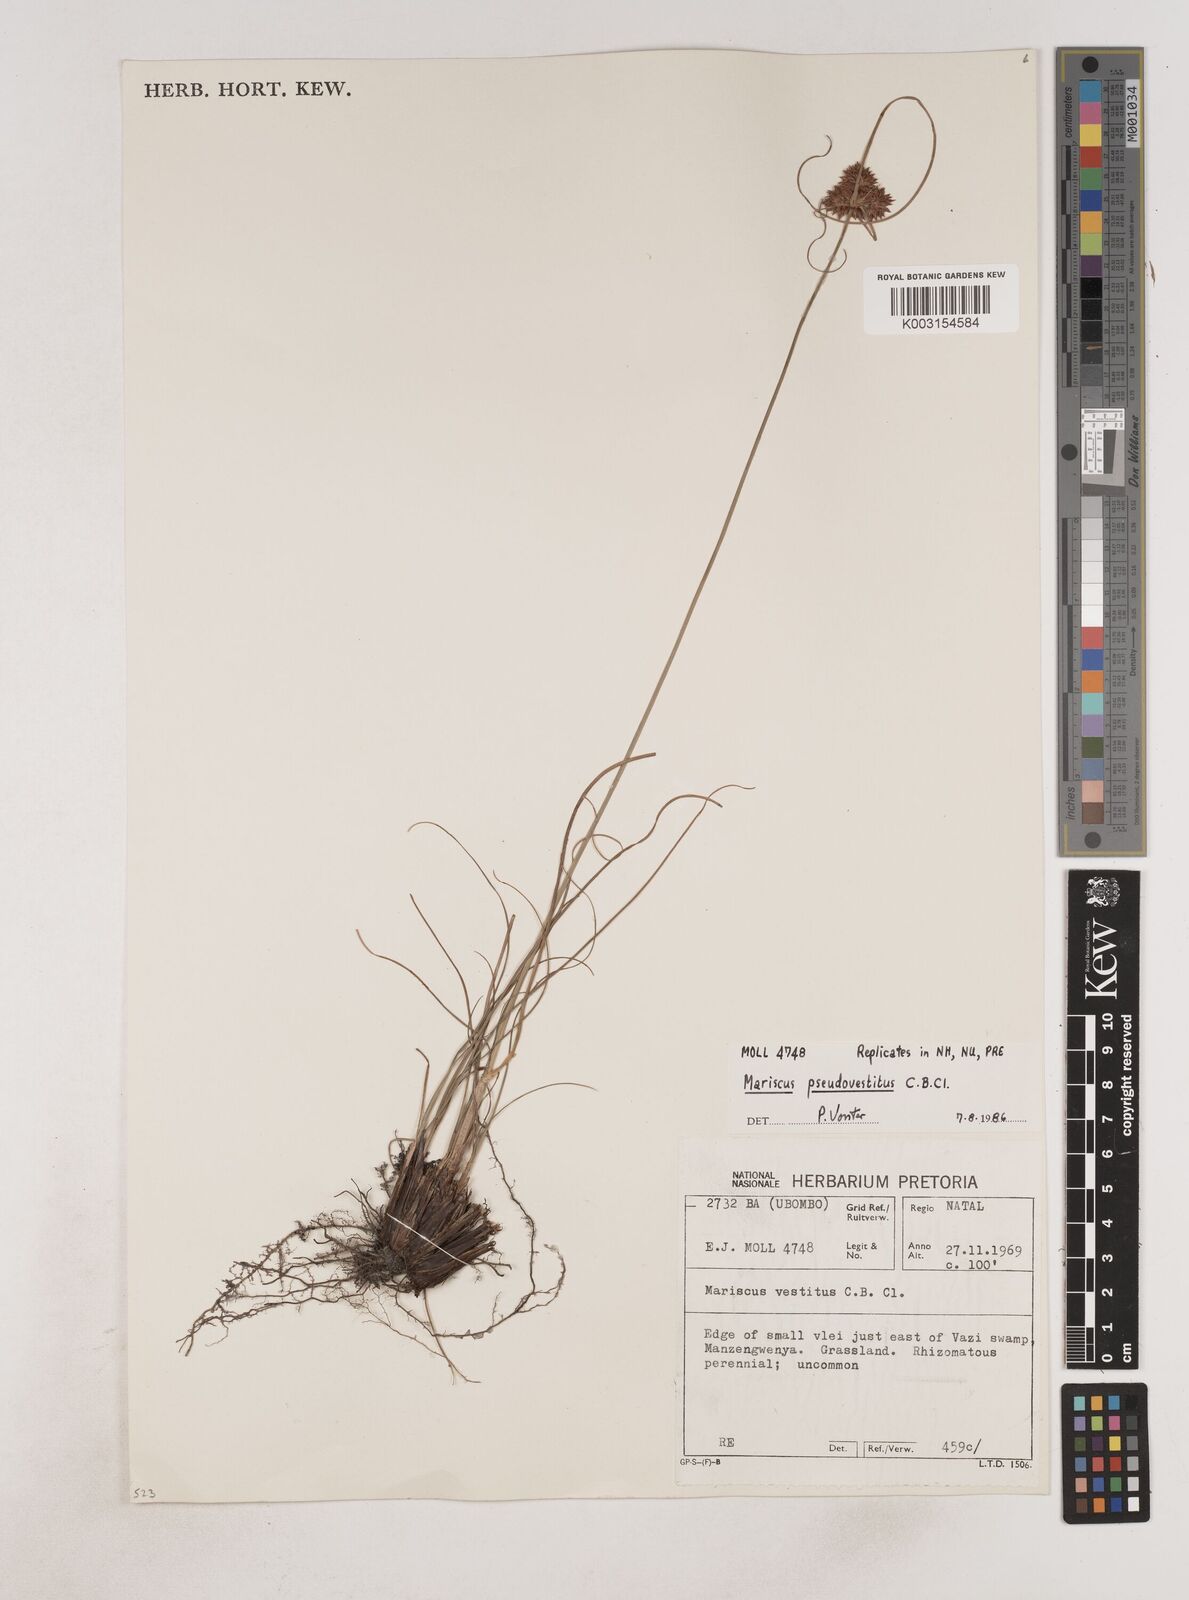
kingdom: Plantae
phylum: Tracheophyta
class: Liliopsida
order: Poales
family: Cyperaceae
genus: Cyperus
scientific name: Cyperus pseudovestitus
